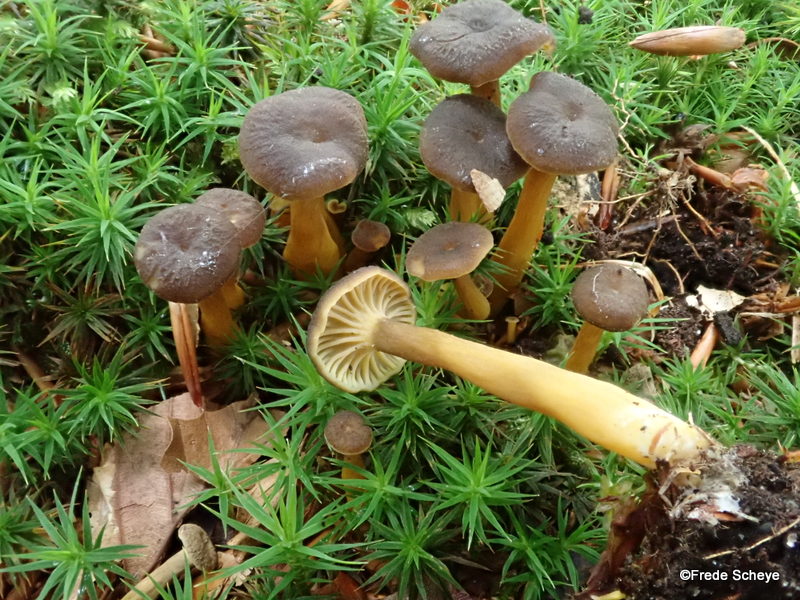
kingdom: Fungi
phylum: Basidiomycota
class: Agaricomycetes
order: Cantharellales
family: Hydnaceae
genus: Craterellus
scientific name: Craterellus tubaeformis
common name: tragt-kantarel
